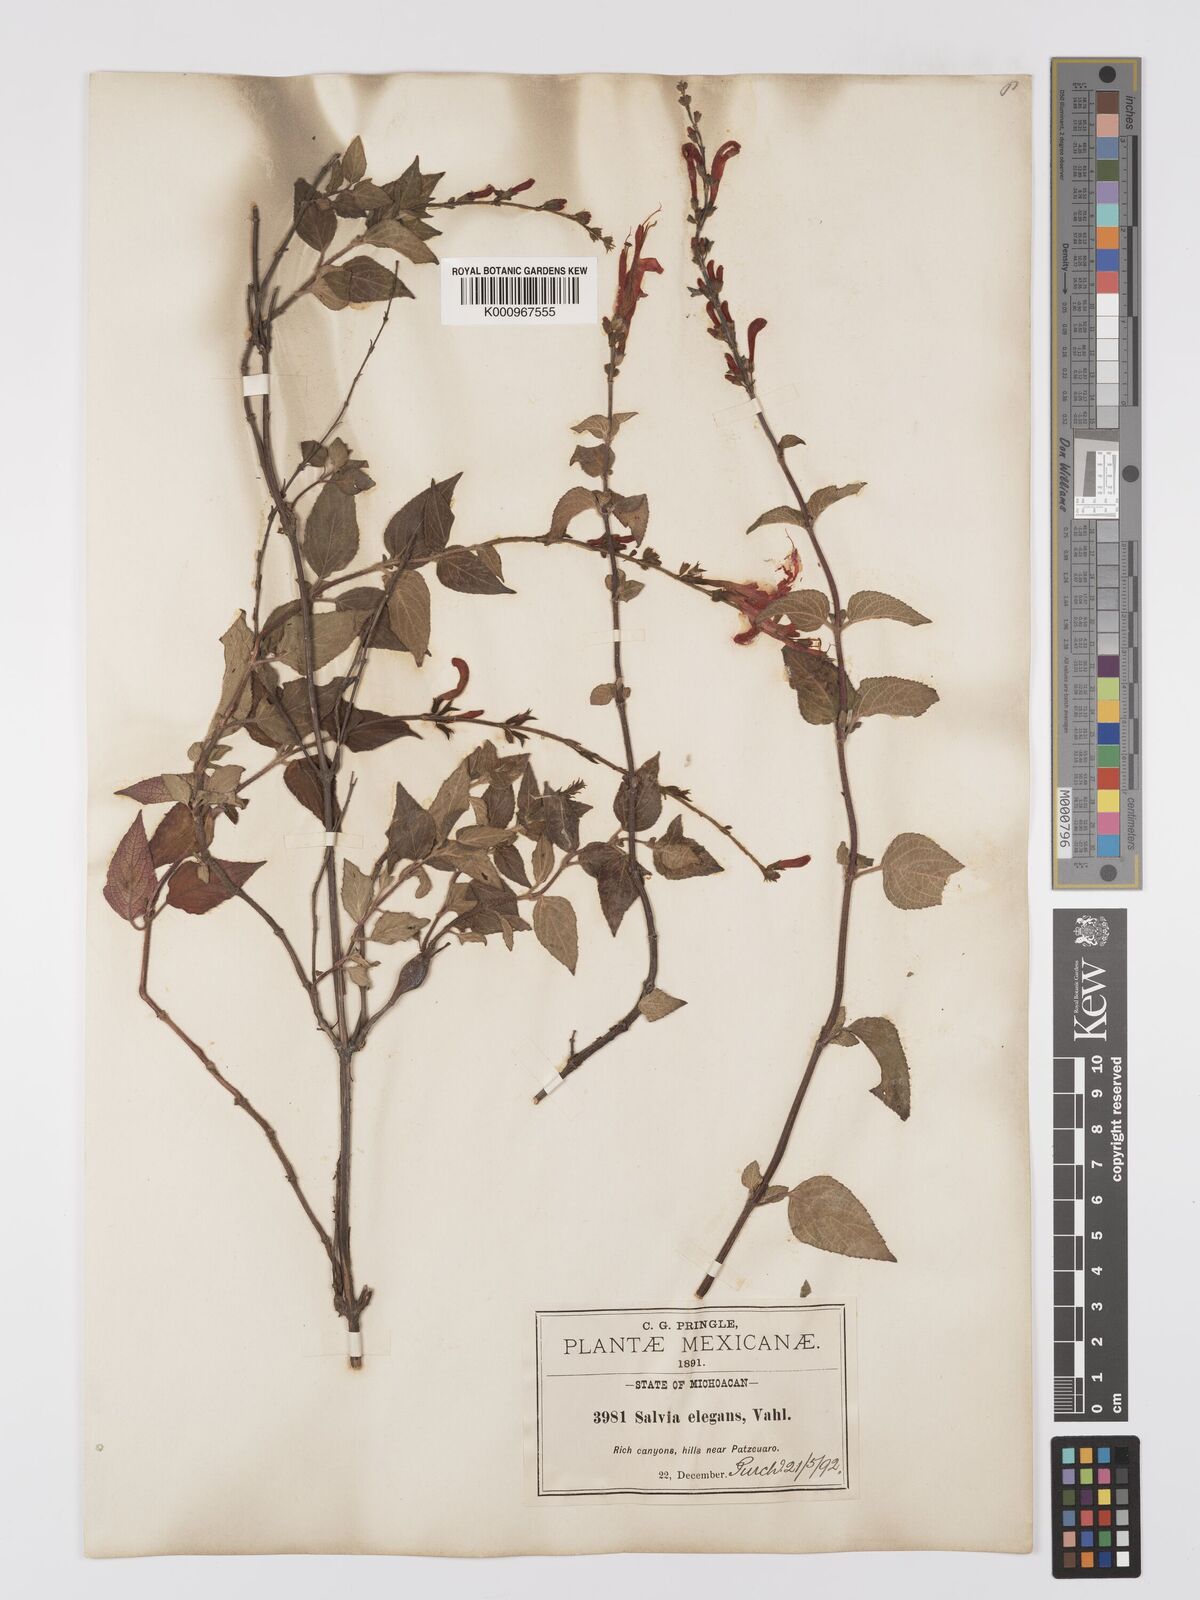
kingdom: Plantae
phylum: Tracheophyta
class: Magnoliopsida
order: Lamiales
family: Lamiaceae
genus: Salvia
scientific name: Salvia elegans
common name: Pineapple sage
